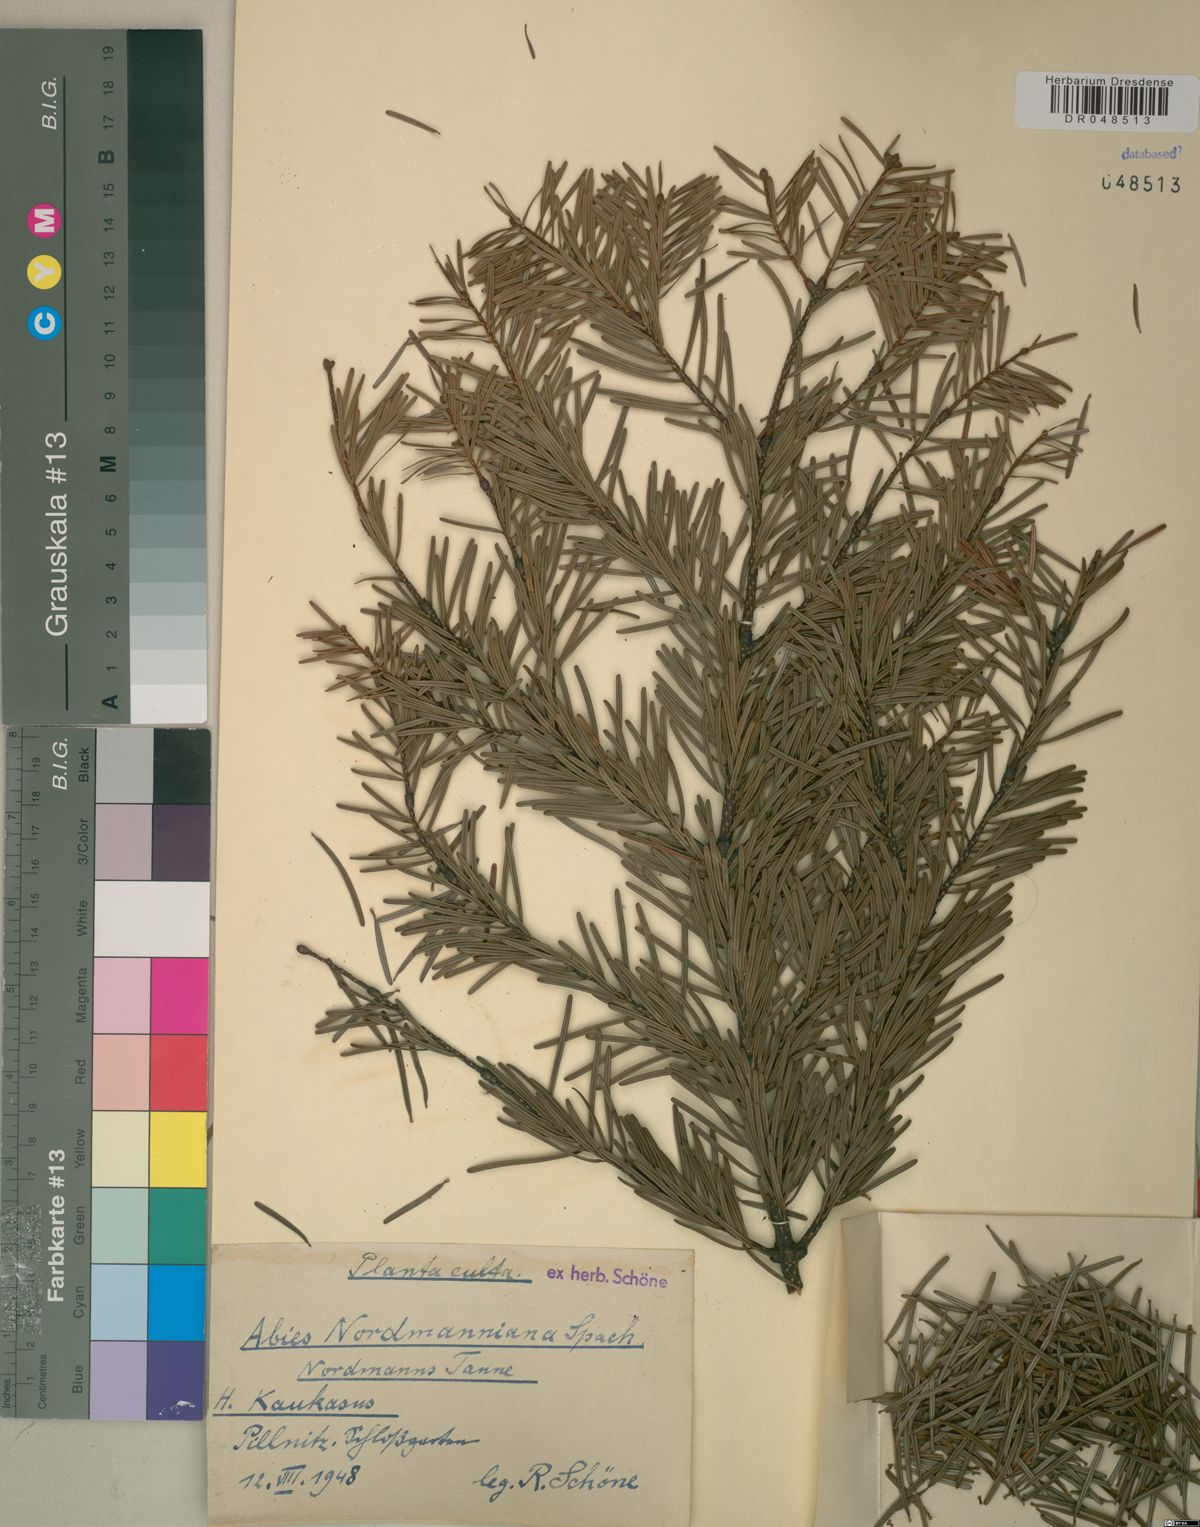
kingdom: Plantae
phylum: Tracheophyta
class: Pinopsida
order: Pinales
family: Pinaceae
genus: Abies
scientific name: Abies nordmanniana
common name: Caucasian fir
